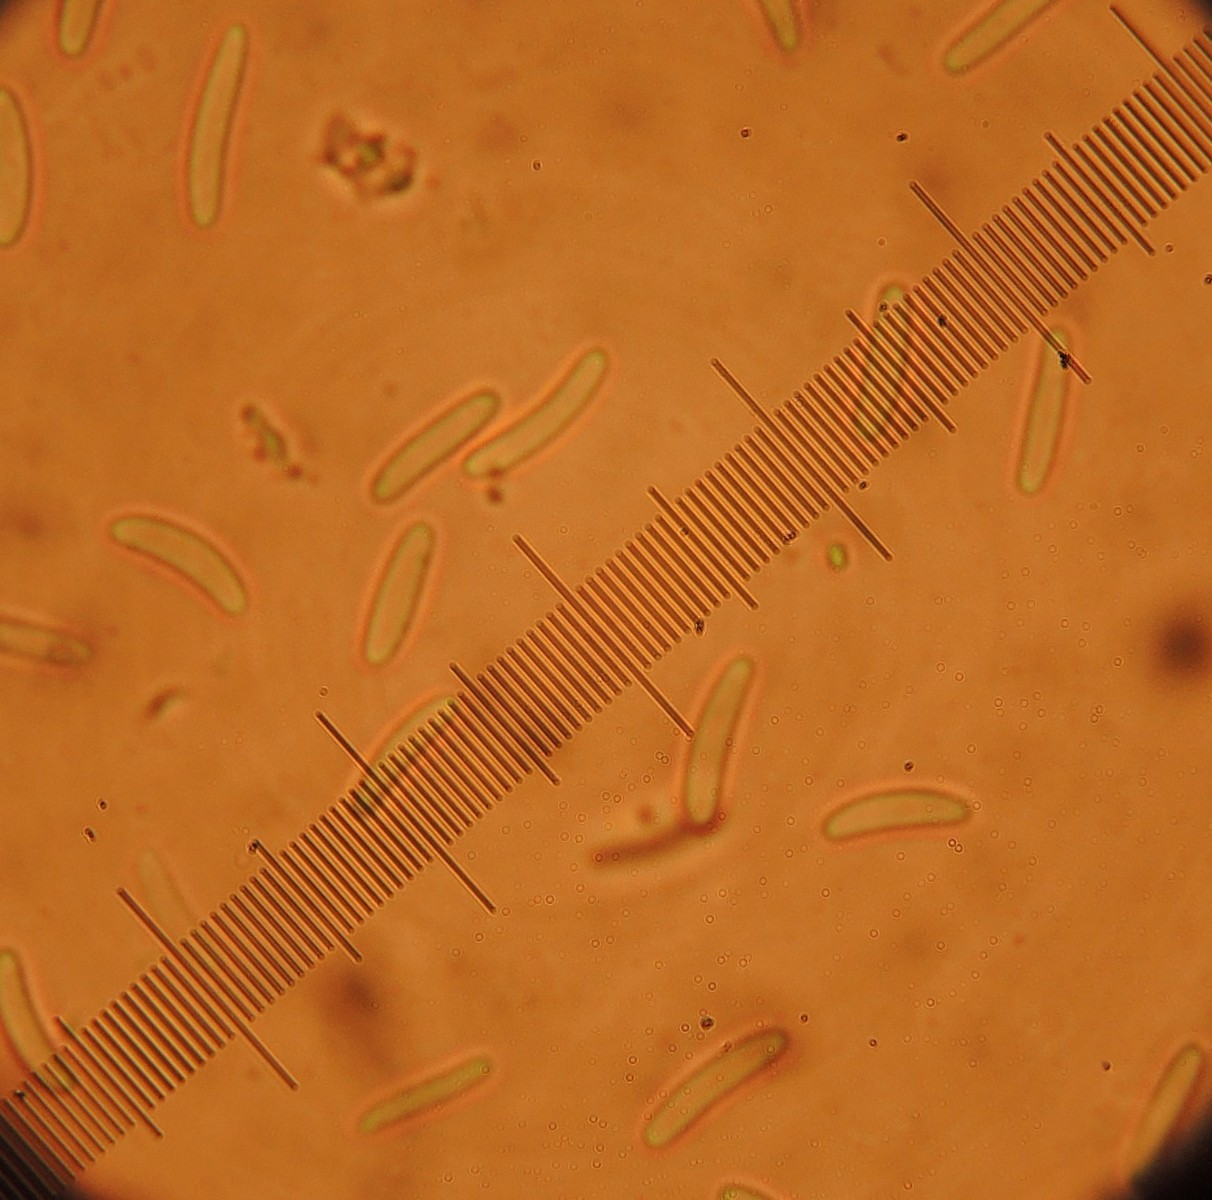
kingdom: Fungi
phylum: Ascomycota
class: Sordariomycetes
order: Diaporthales
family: Valsaceae
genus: Cytospora
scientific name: Cytospora chrysosperma
